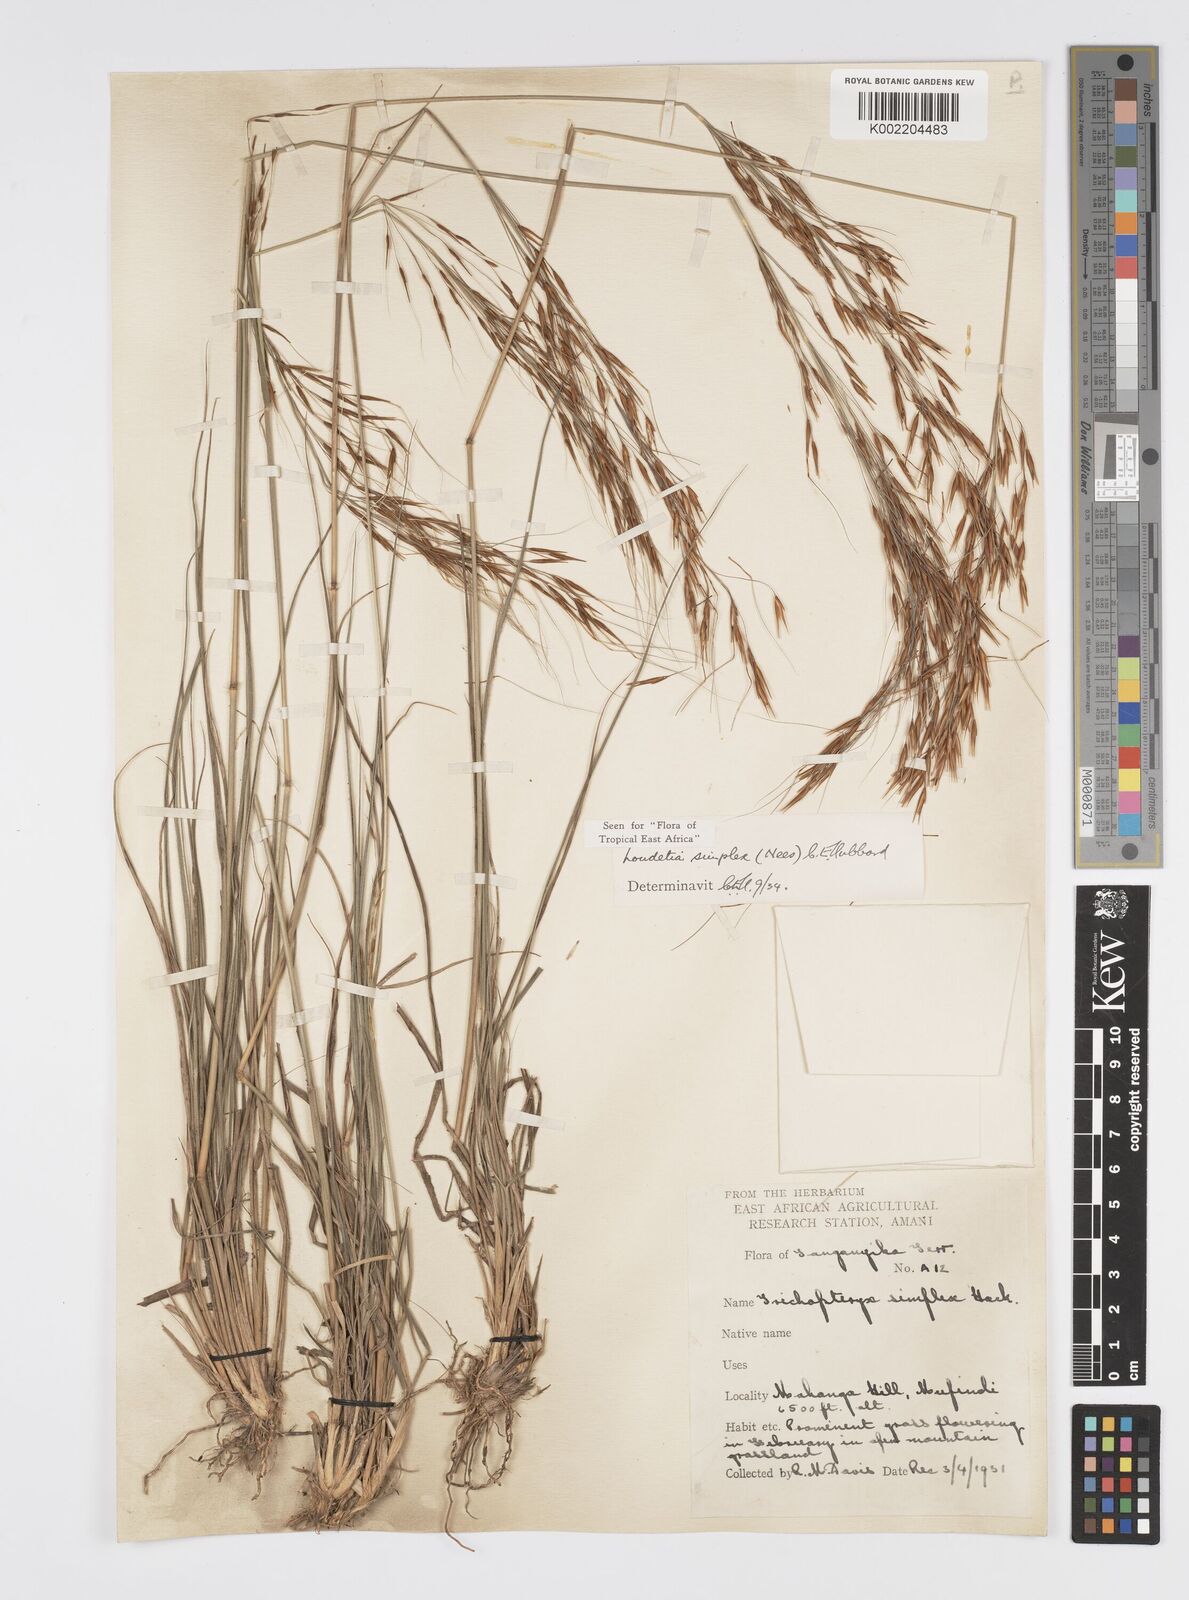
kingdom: Plantae
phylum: Tracheophyta
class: Liliopsida
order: Poales
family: Poaceae
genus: Loudetia
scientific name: Loudetia simplex
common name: Common russet grass
